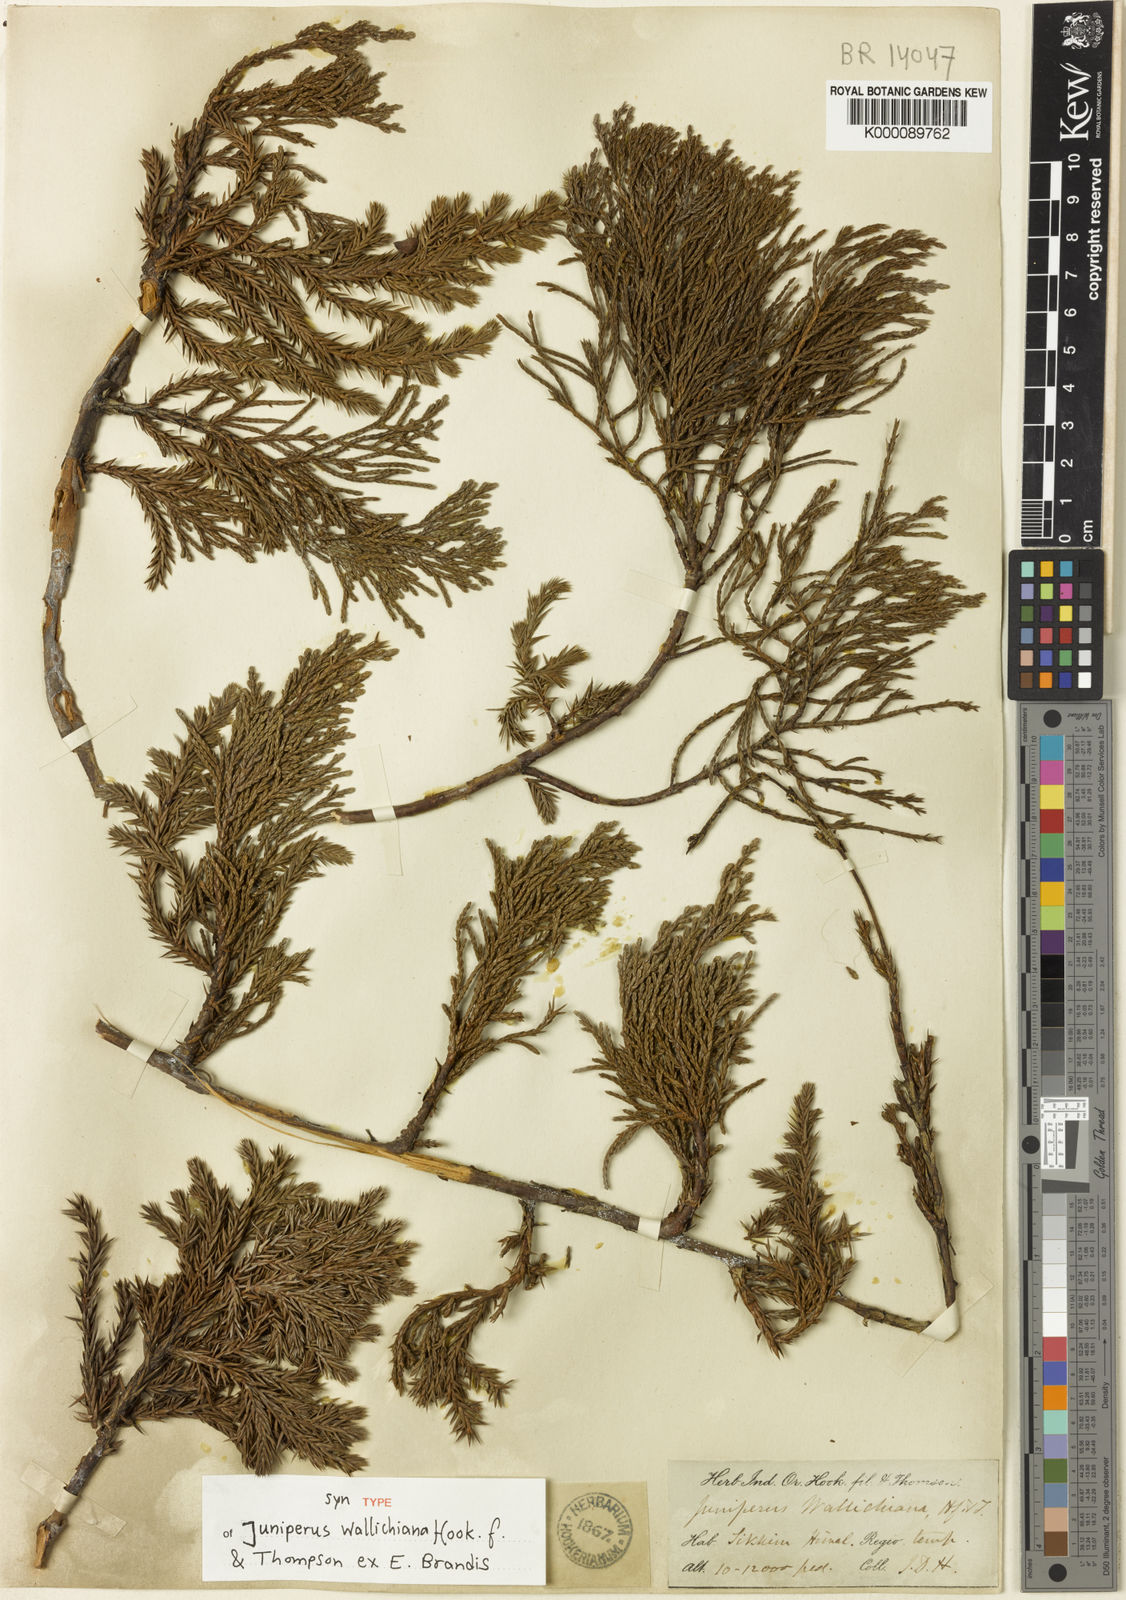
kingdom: Plantae
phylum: Tracheophyta
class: Pinopsida
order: Pinales
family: Cupressaceae
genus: Juniperus
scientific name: Juniperus indica
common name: Black juniper
